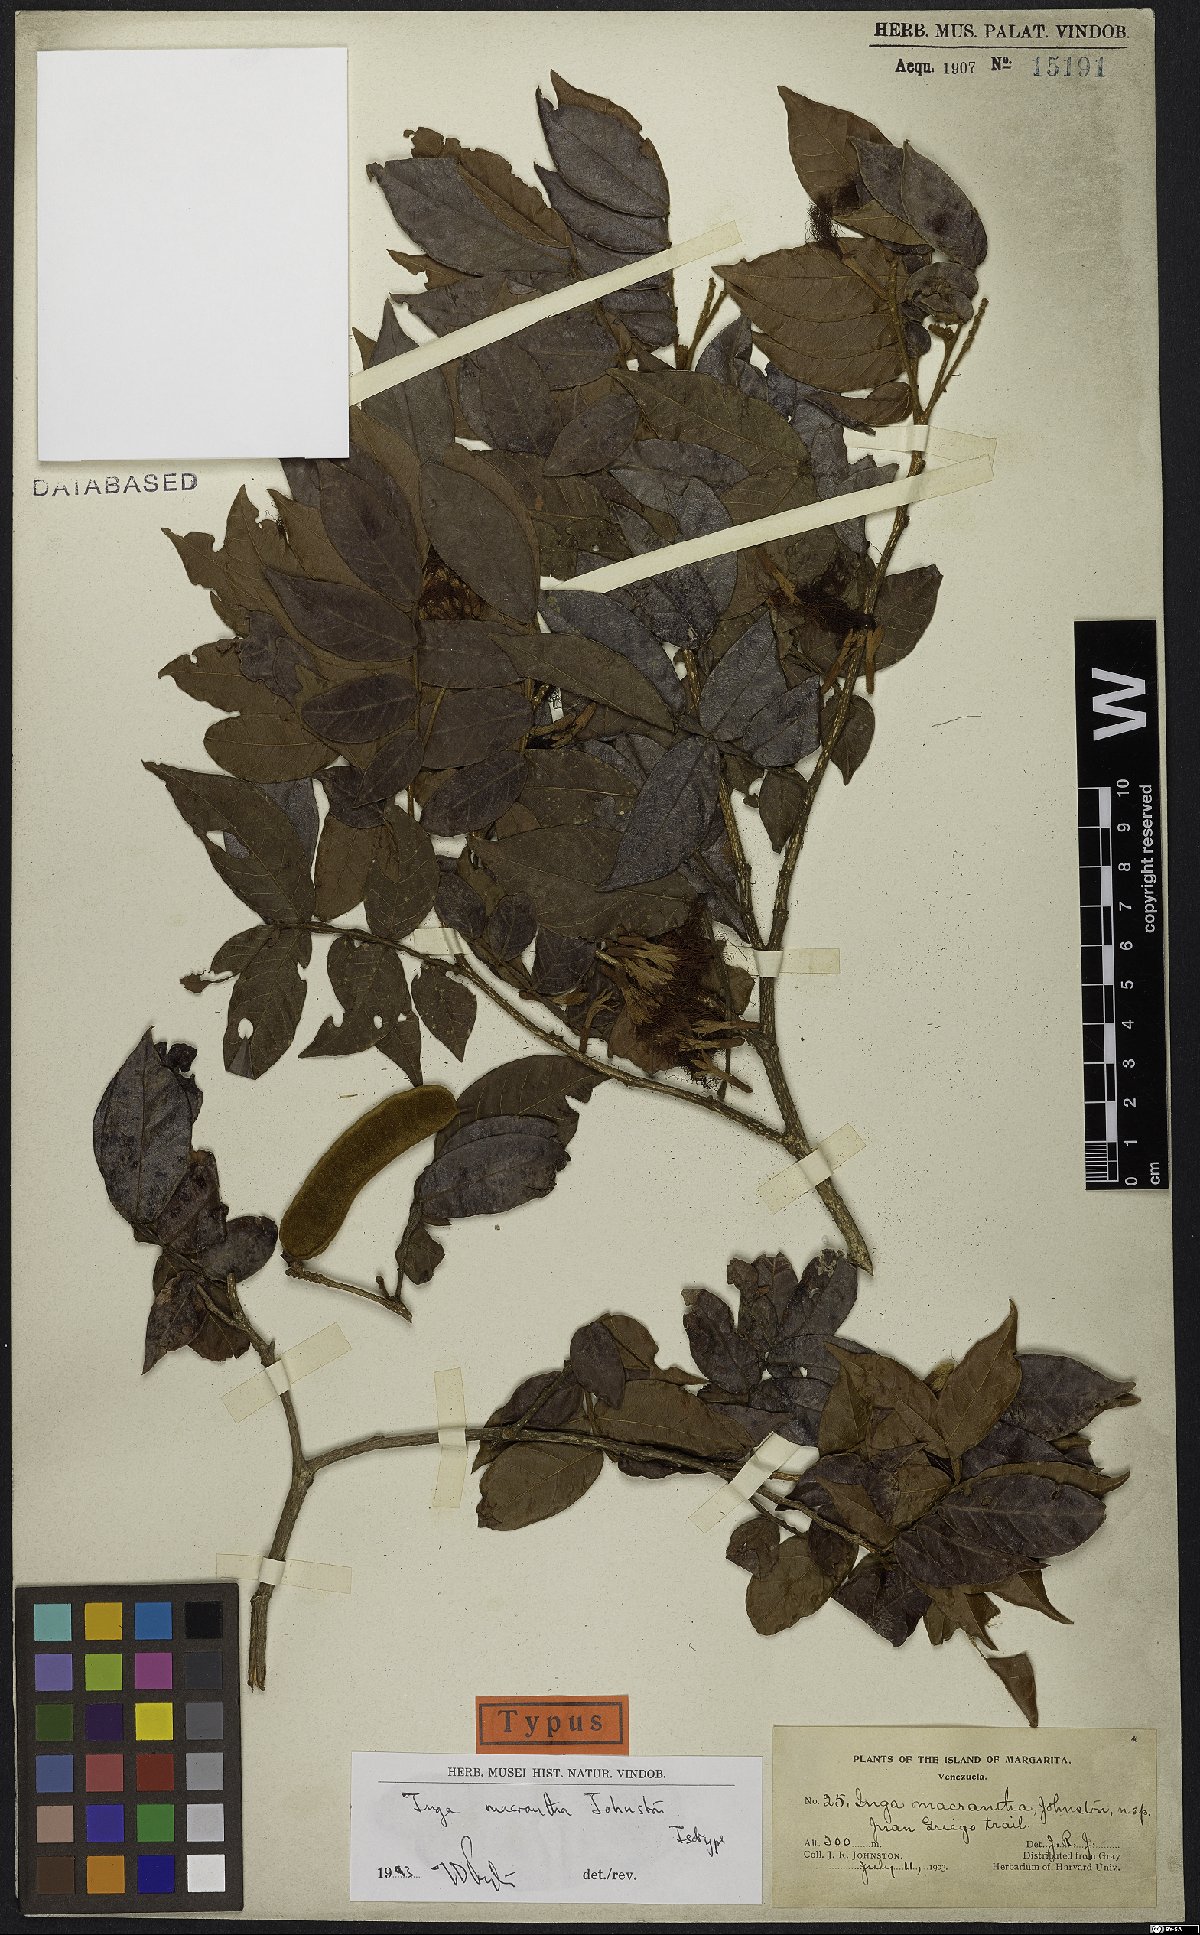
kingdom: Plantae
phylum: Tracheophyta
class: Magnoliopsida
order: Fabales
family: Fabaceae
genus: Inga
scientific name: Inga macrantha
